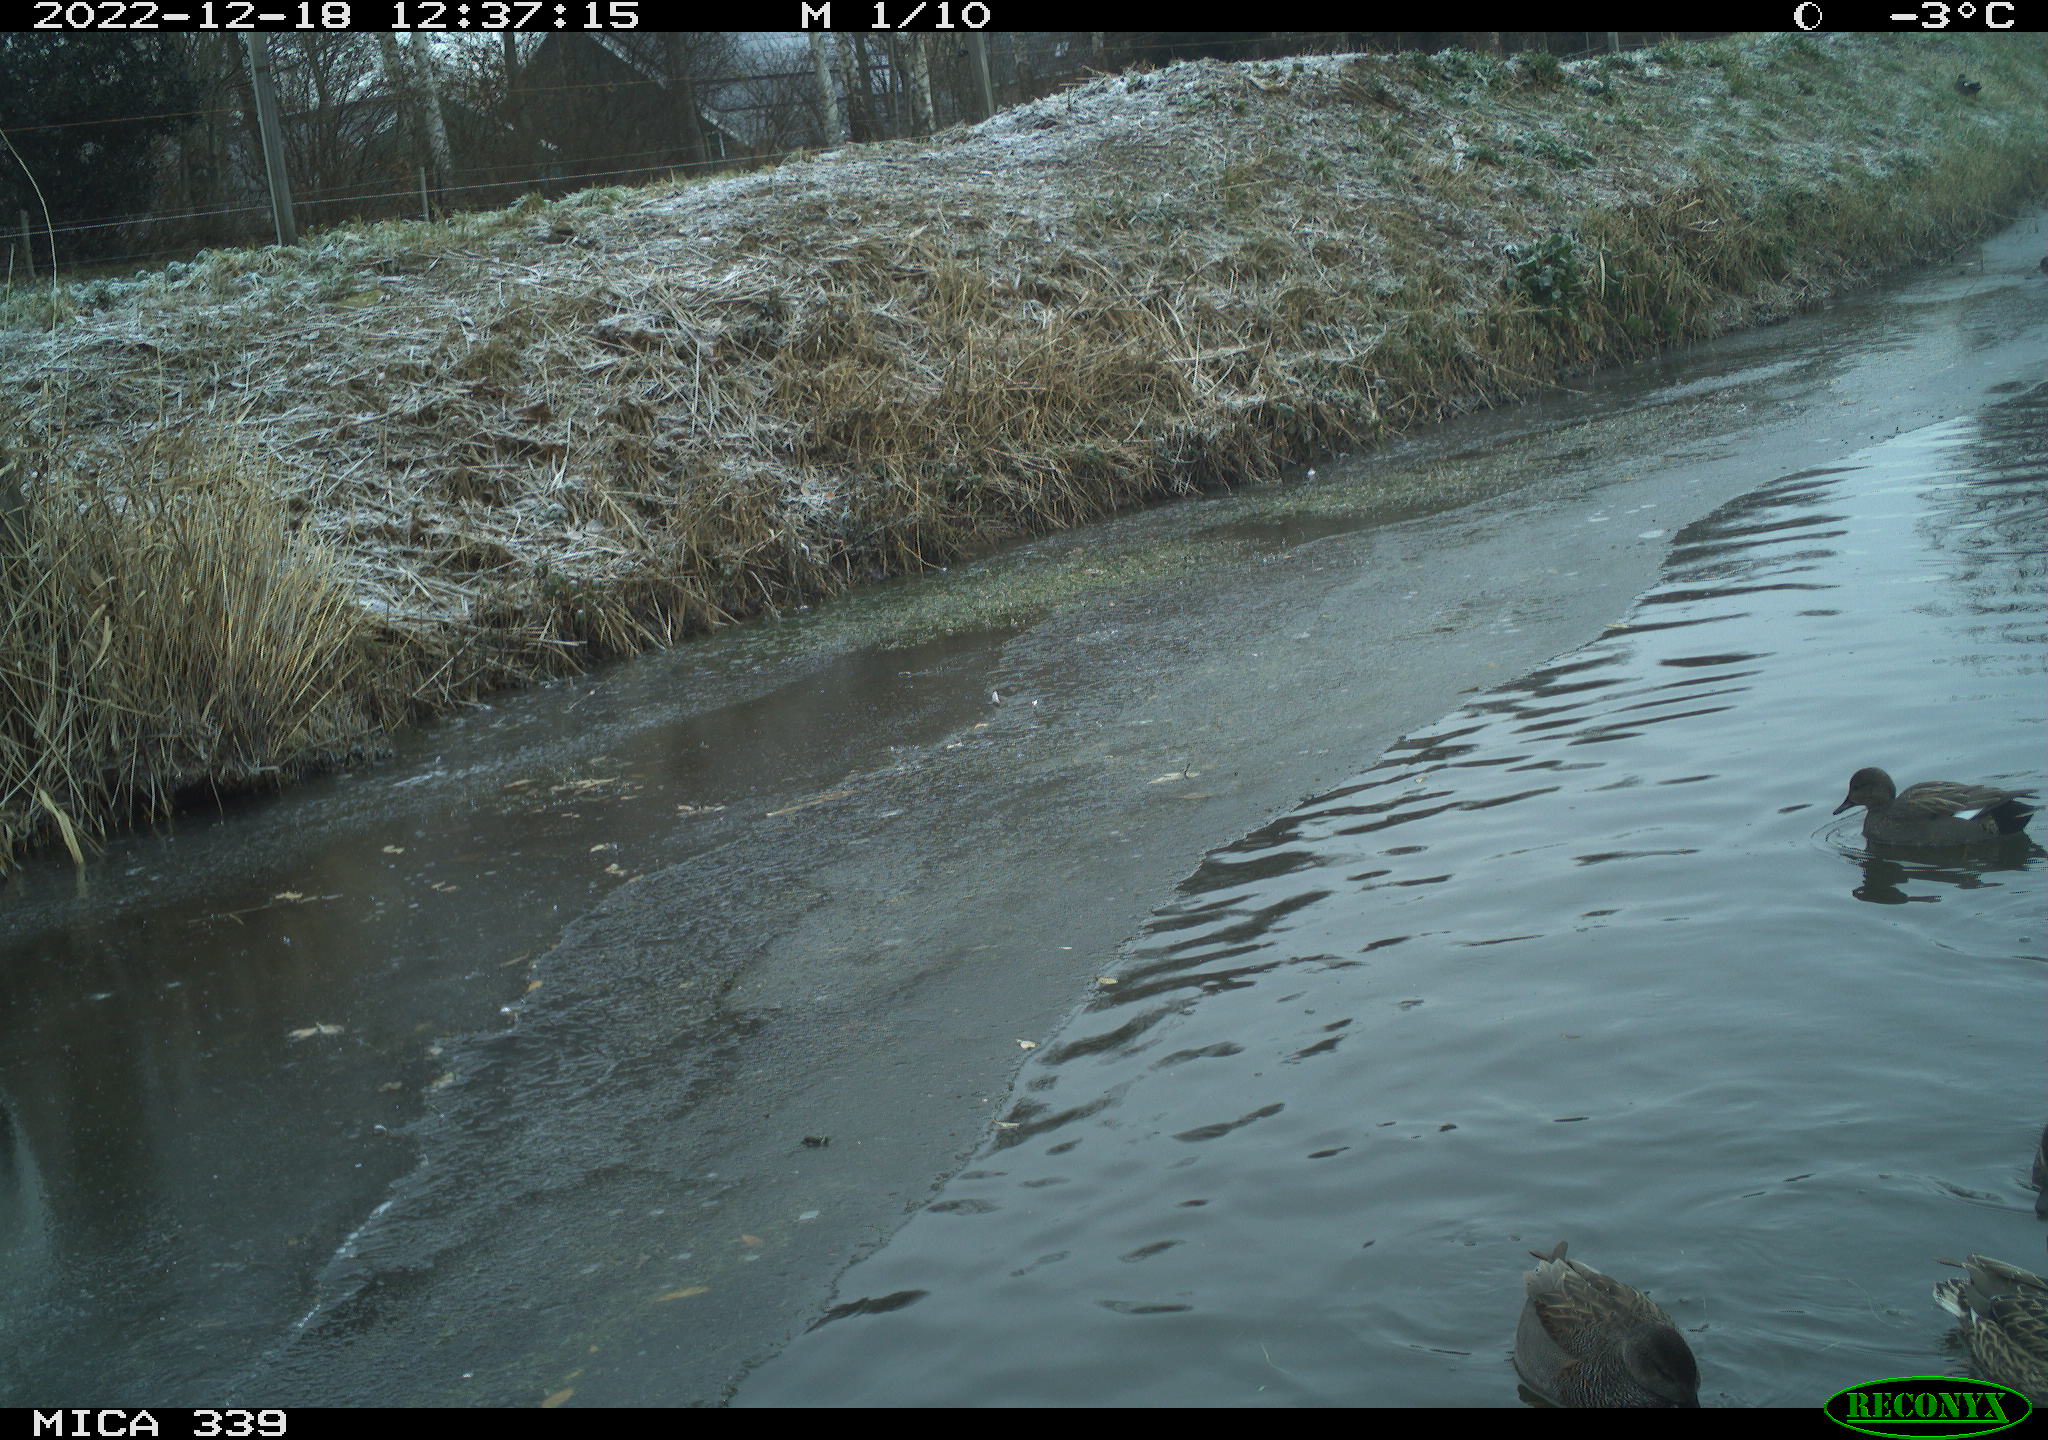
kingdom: Animalia
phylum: Chordata
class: Aves
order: Pelecaniformes
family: Ardeidae
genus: Ardea
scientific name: Ardea alba
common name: Great egret
